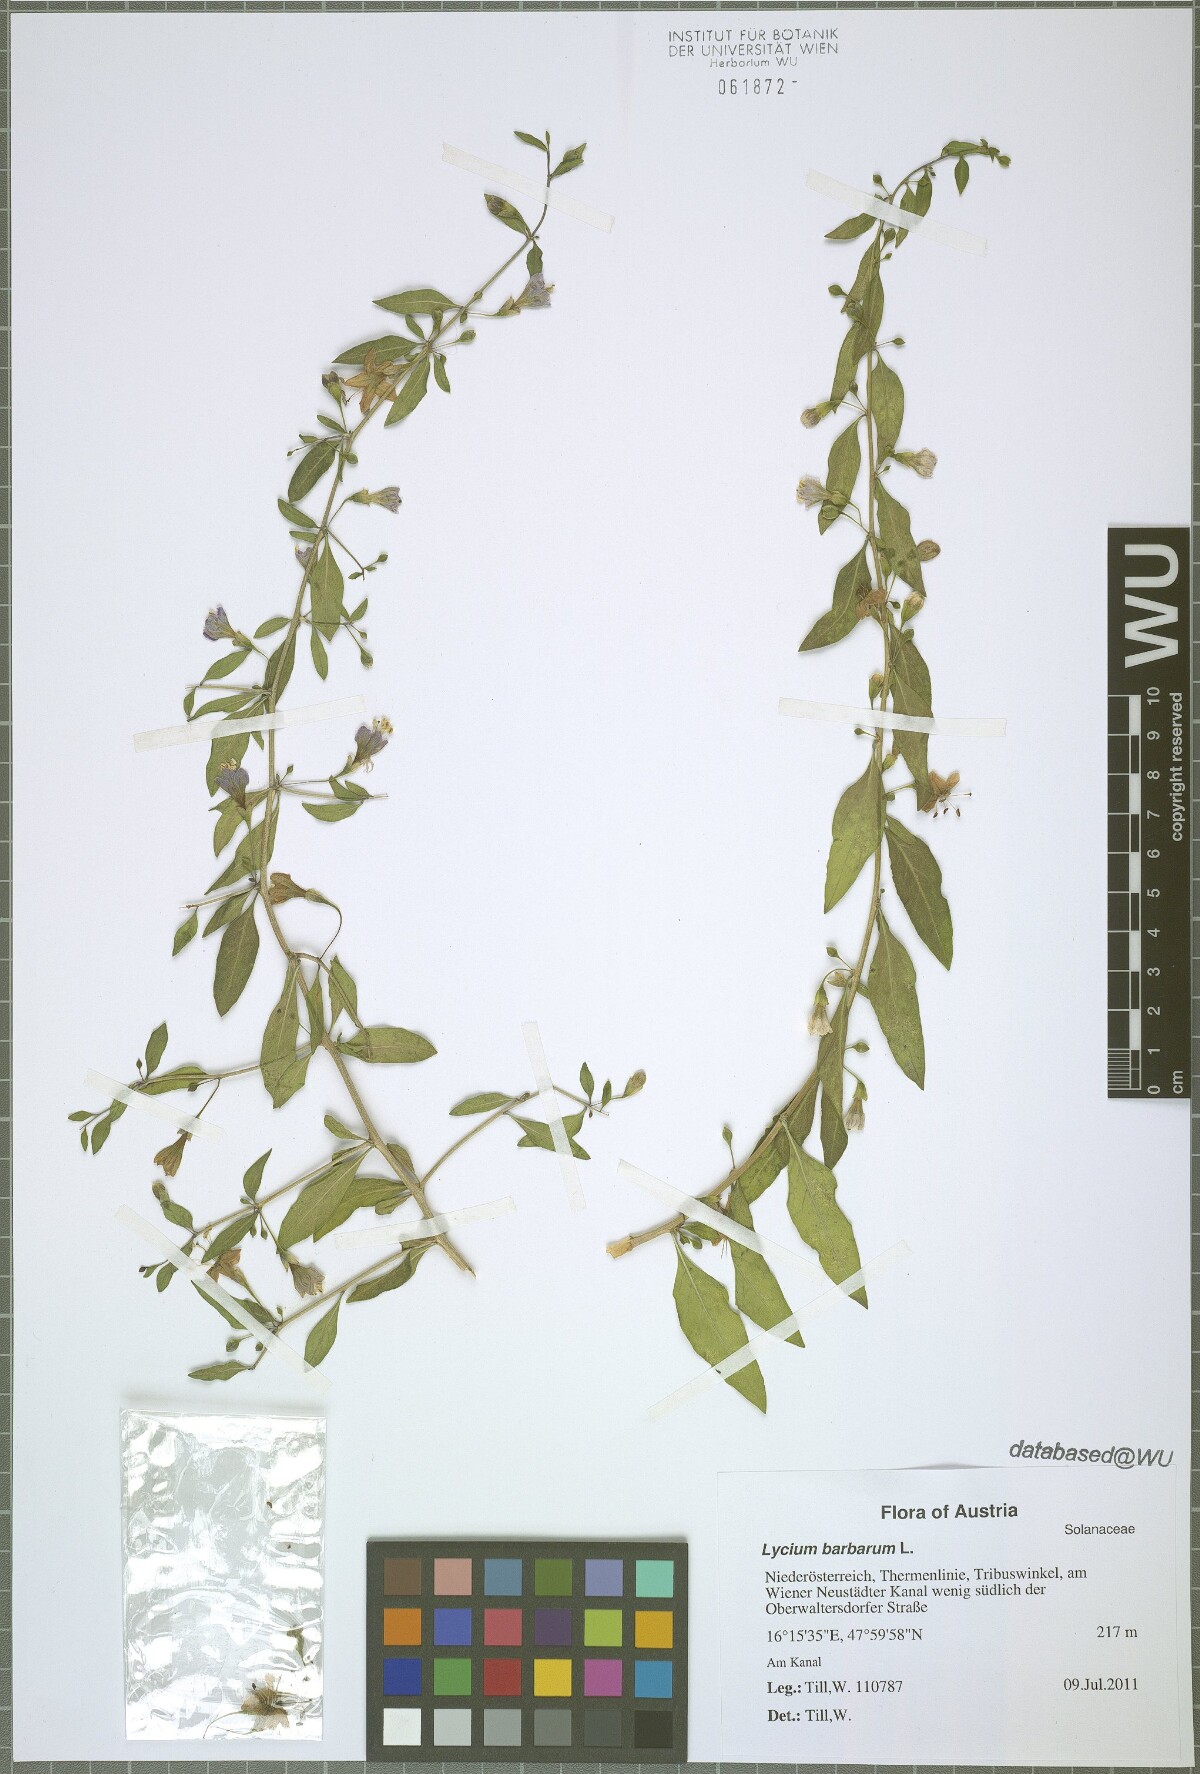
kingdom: Plantae
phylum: Tracheophyta
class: Magnoliopsida
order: Solanales
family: Solanaceae
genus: Lycium
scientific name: Lycium barbarum
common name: Duke of argyll's teaplant
